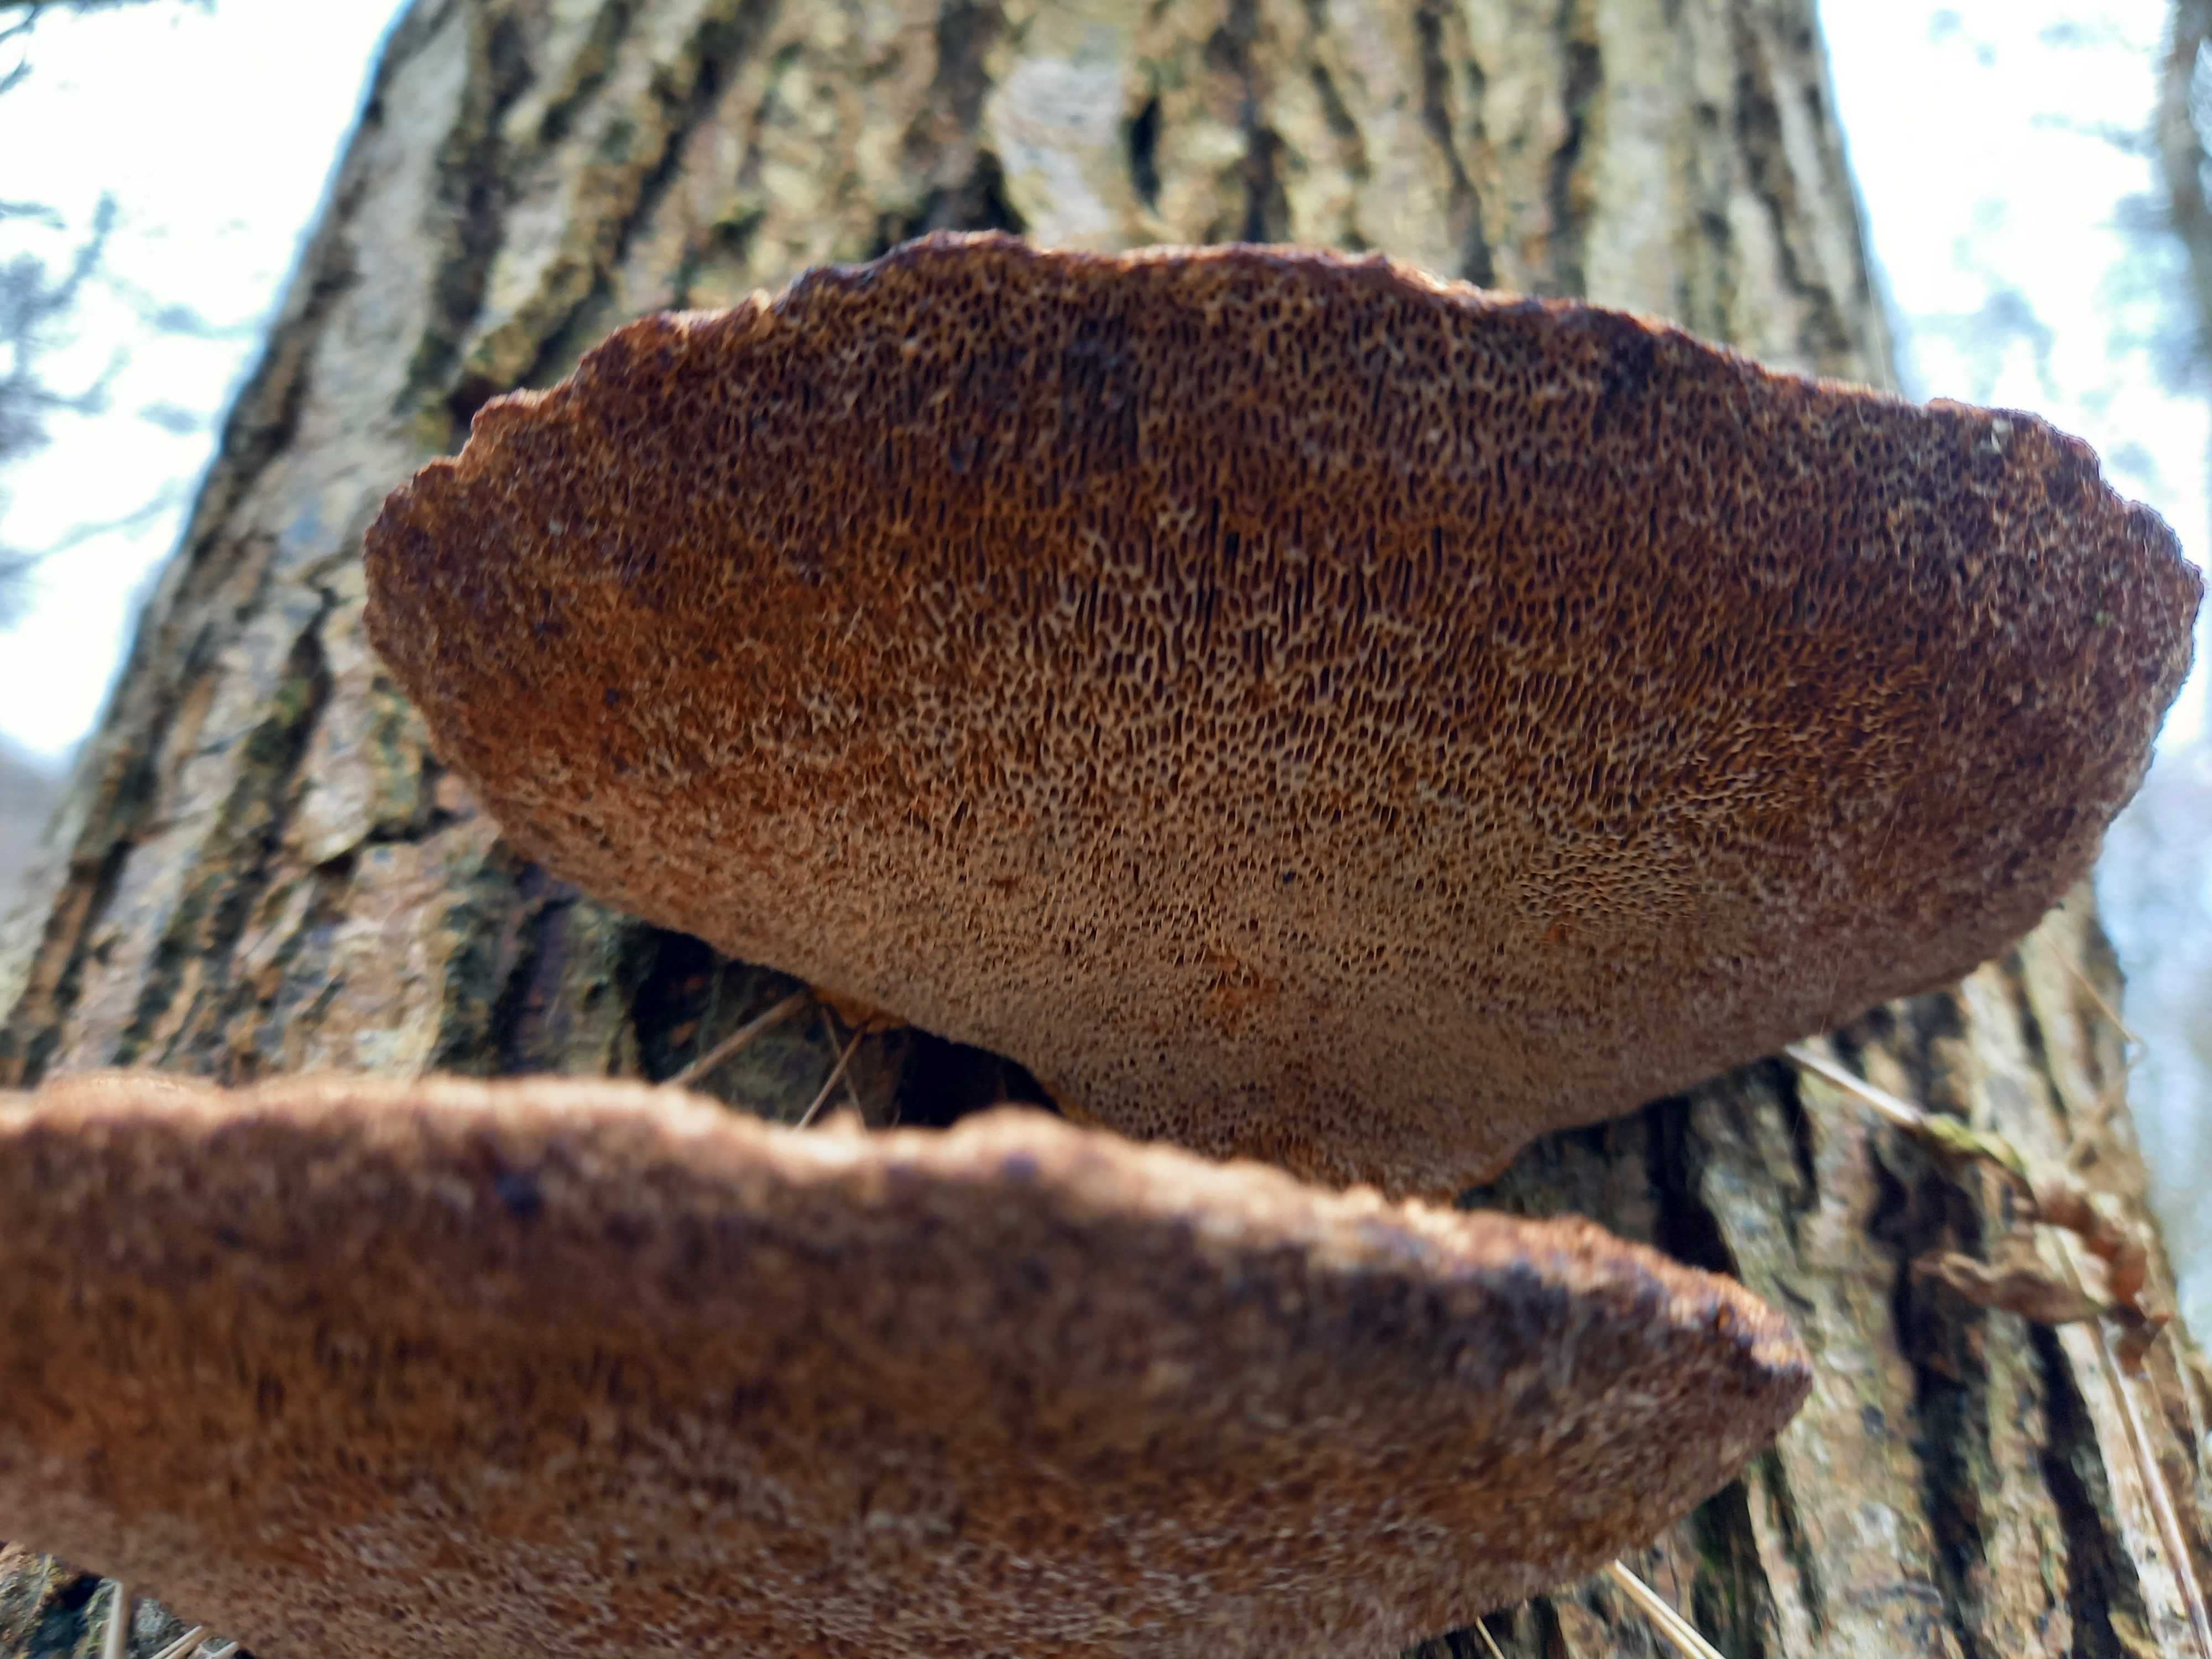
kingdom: Fungi
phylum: Basidiomycota
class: Agaricomycetes
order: Polyporales
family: Polyporaceae
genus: Daedaleopsis
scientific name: Daedaleopsis confragosa
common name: rødmende læderporesvamp
